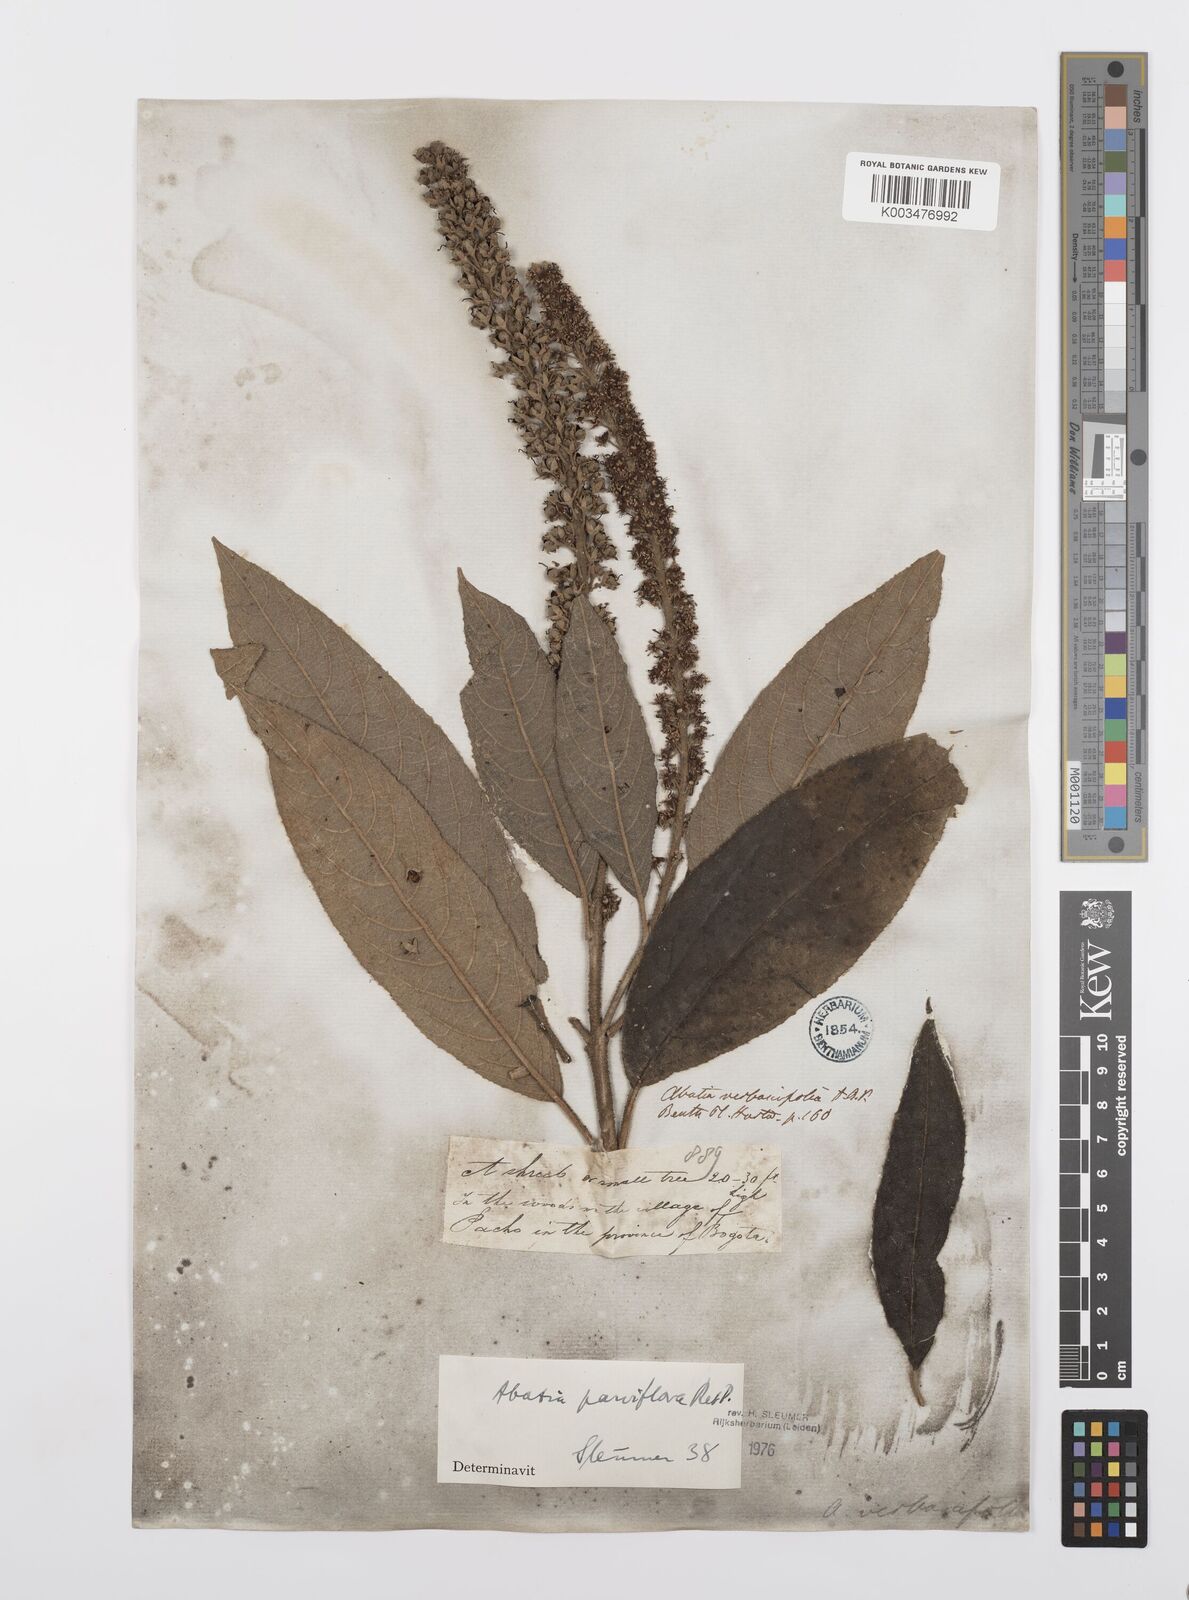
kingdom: Plantae
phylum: Tracheophyta
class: Magnoliopsida
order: Malpighiales
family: Salicaceae
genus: Abatia
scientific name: Abatia parviflora
